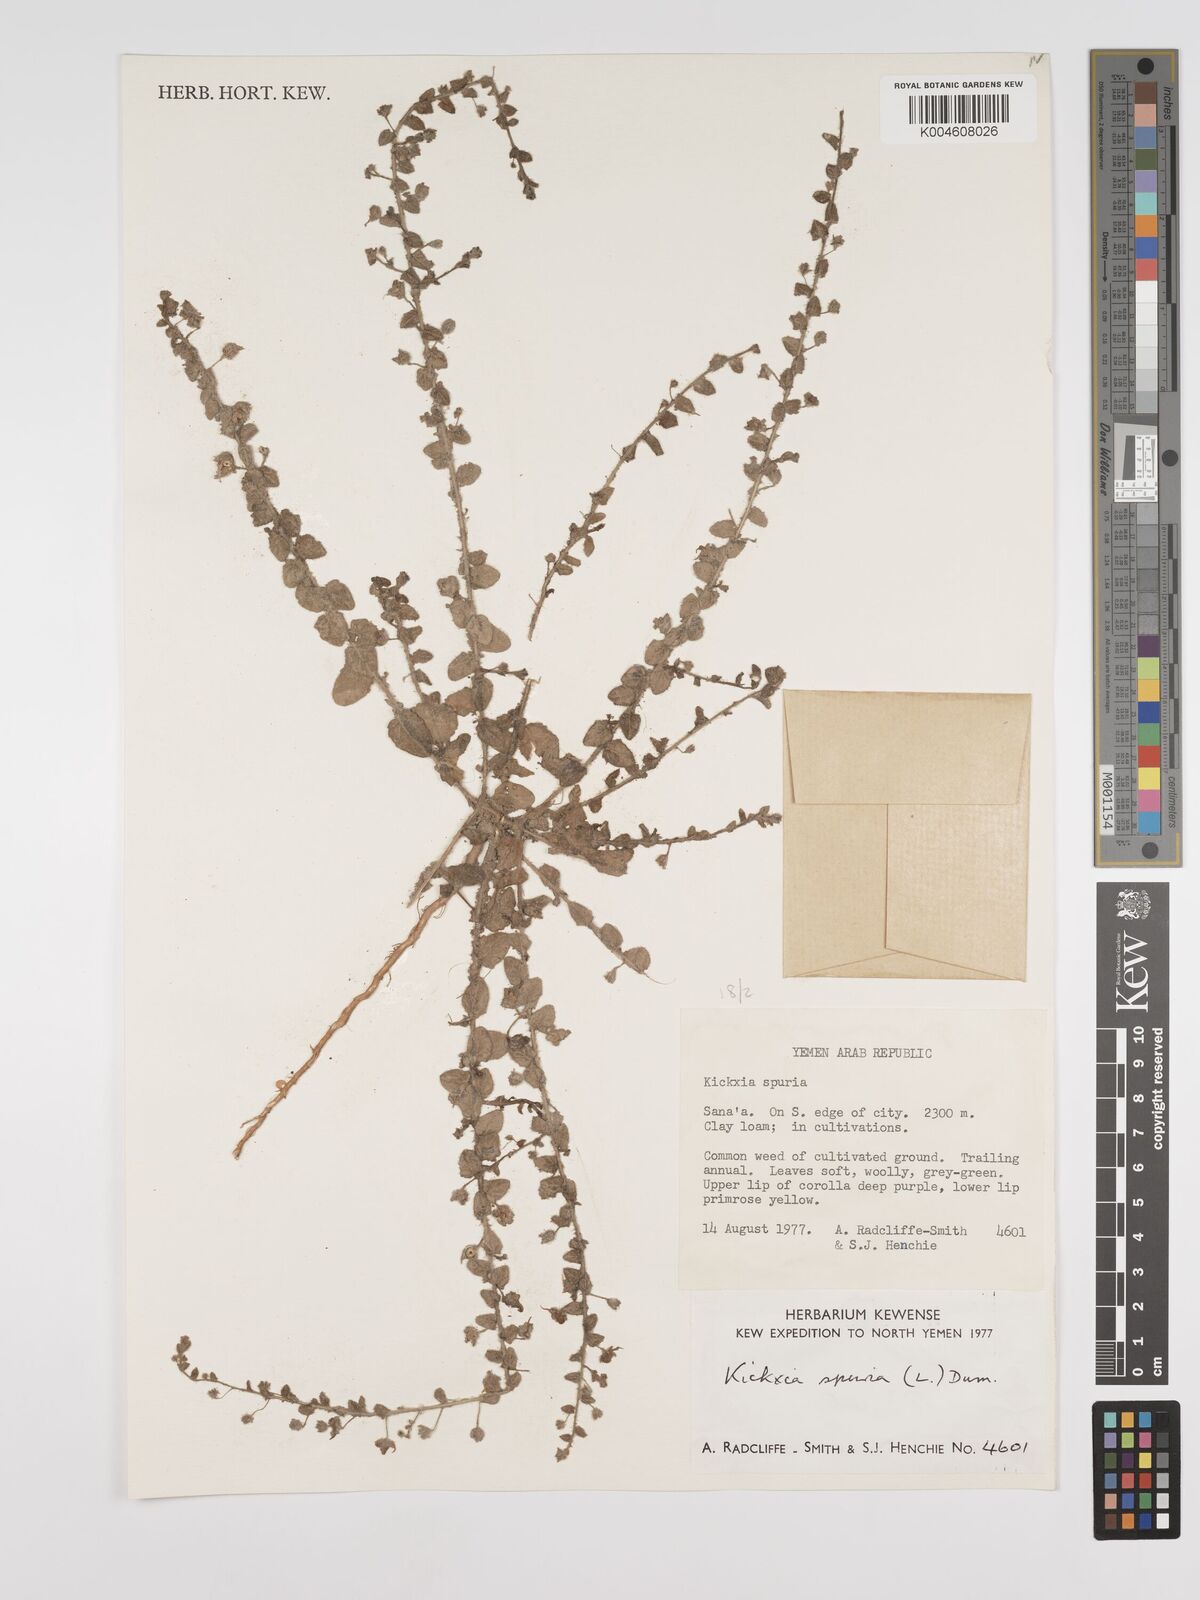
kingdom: Plantae
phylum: Tracheophyta
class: Magnoliopsida
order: Lamiales
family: Plantaginaceae
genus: Kickxia
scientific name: Kickxia spuria
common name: Round-leaved fluellen
